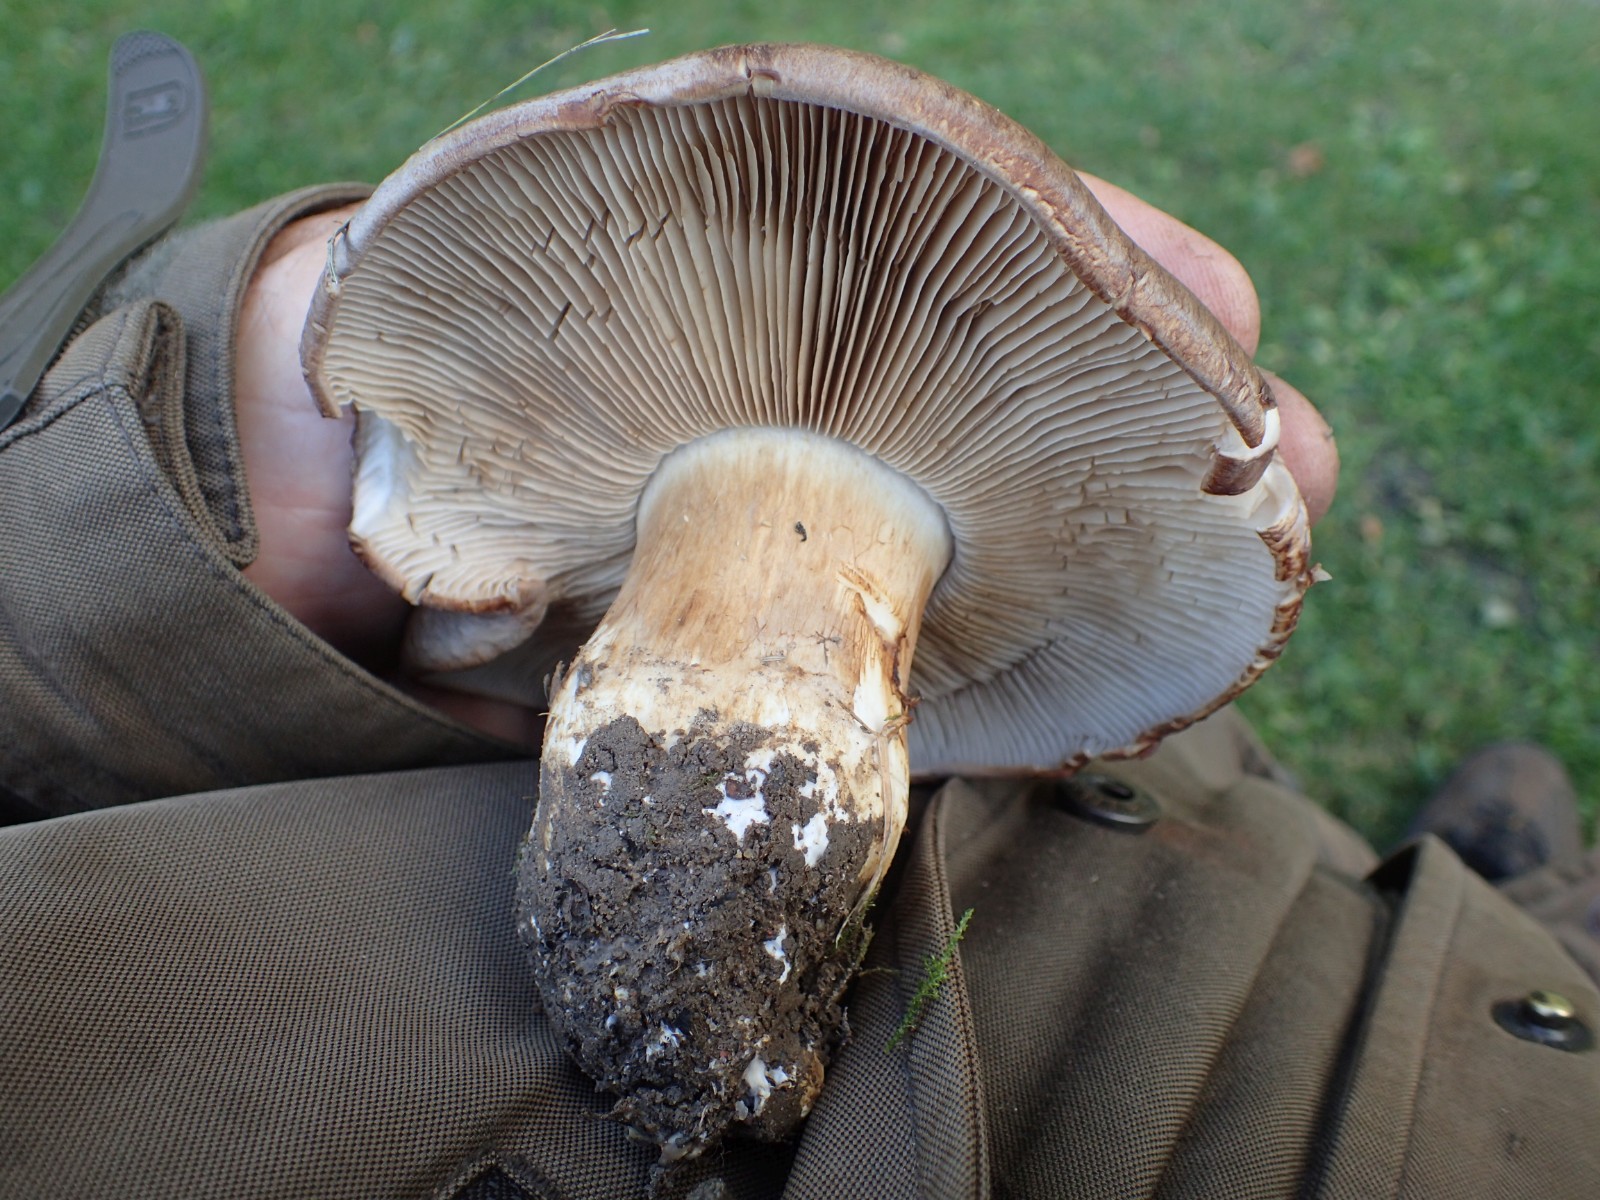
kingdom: Fungi
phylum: Basidiomycota
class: Agaricomycetes
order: Agaricales
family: Cortinariaceae
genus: Phlegmacium
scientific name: Phlegmacium balteatocumatile
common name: violettrådet slørhat
